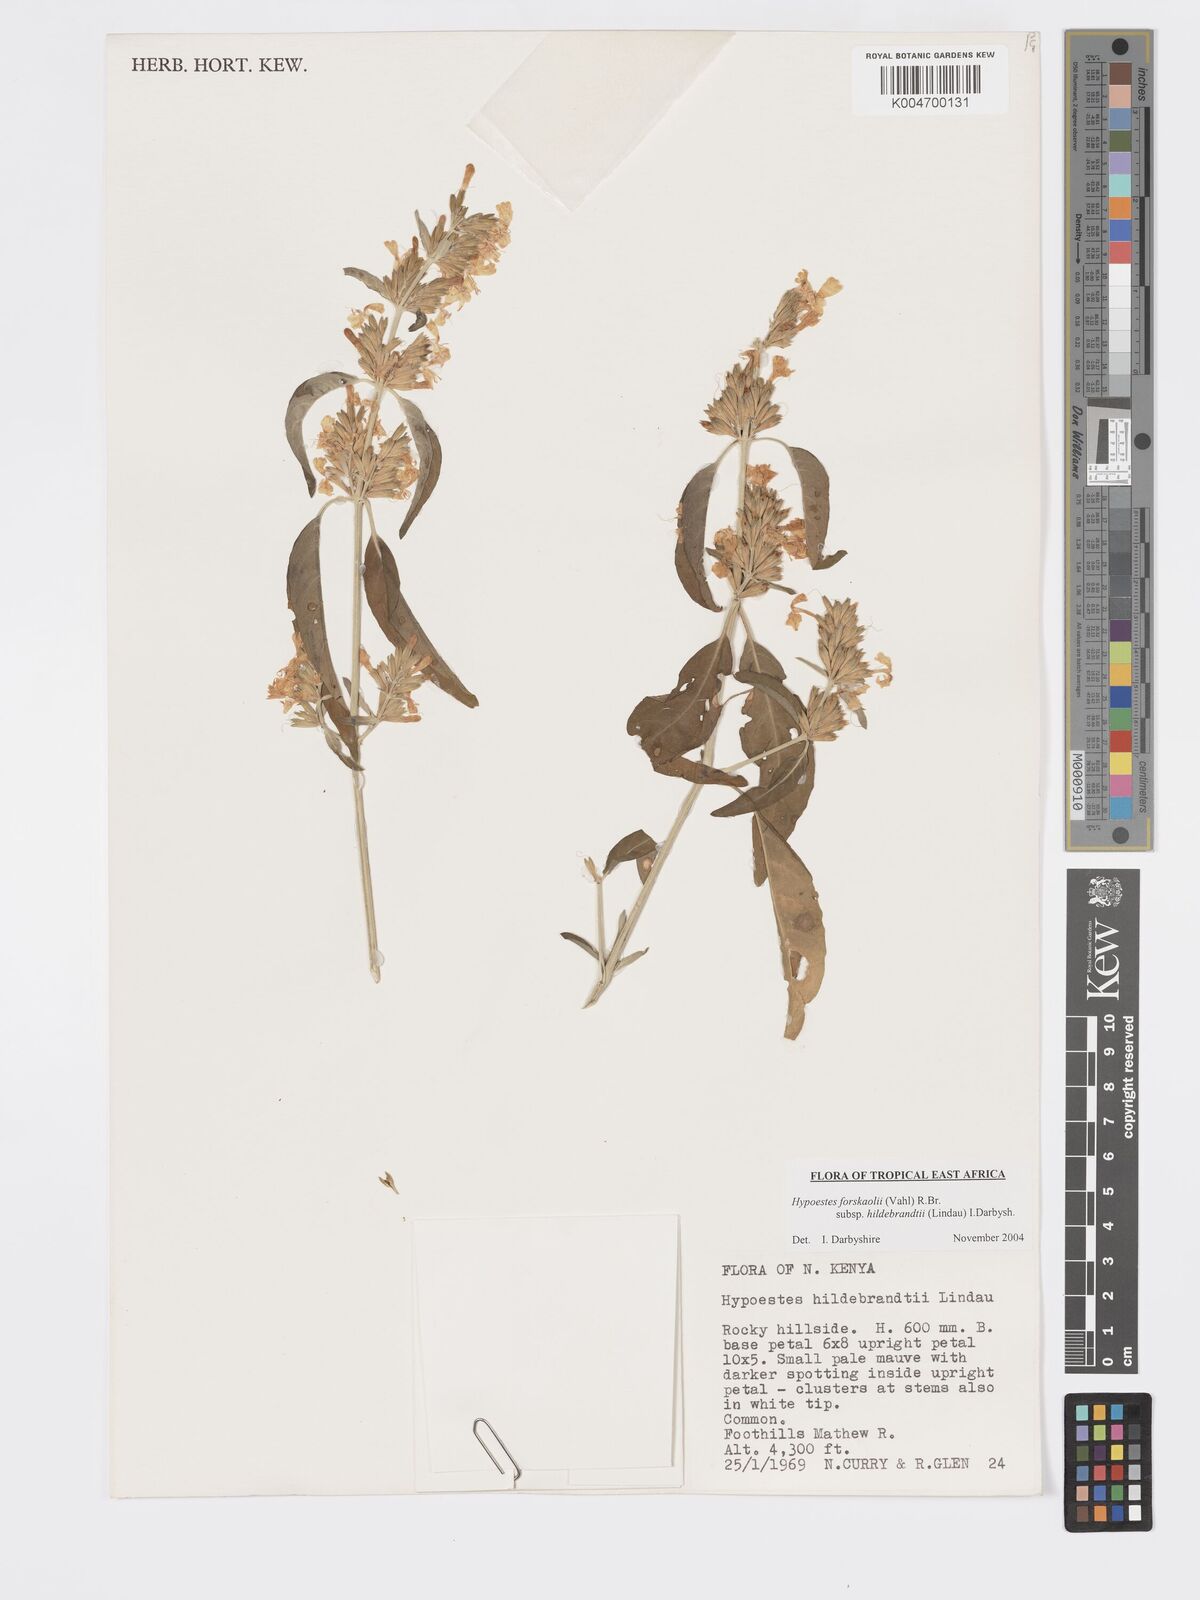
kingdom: Plantae
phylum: Tracheophyta
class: Magnoliopsida
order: Lamiales
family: Acanthaceae
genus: Hypoestes
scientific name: Hypoestes forskaolii
